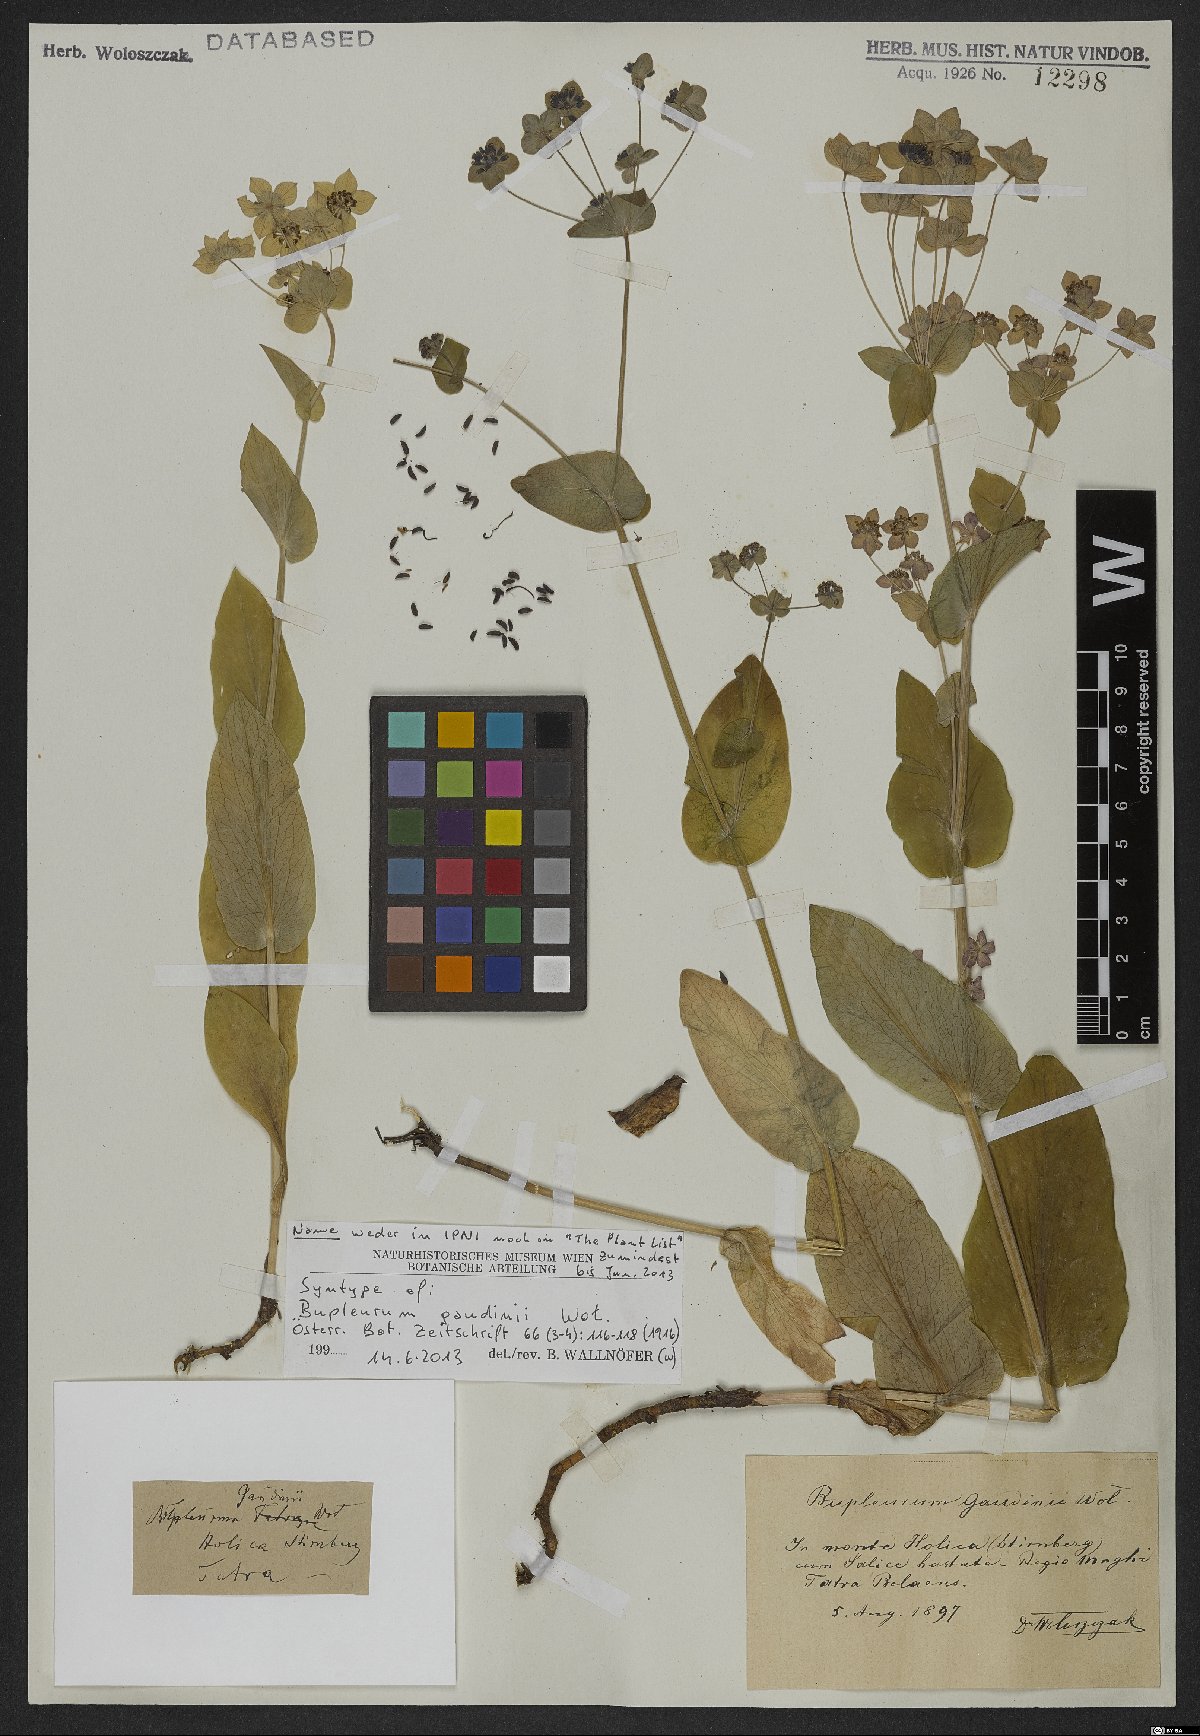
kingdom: Plantae
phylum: Tracheophyta
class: Magnoliopsida
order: Apiales
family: Apiaceae
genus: Bupleurum
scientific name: Bupleurum subovatum
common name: False thorow-wax
